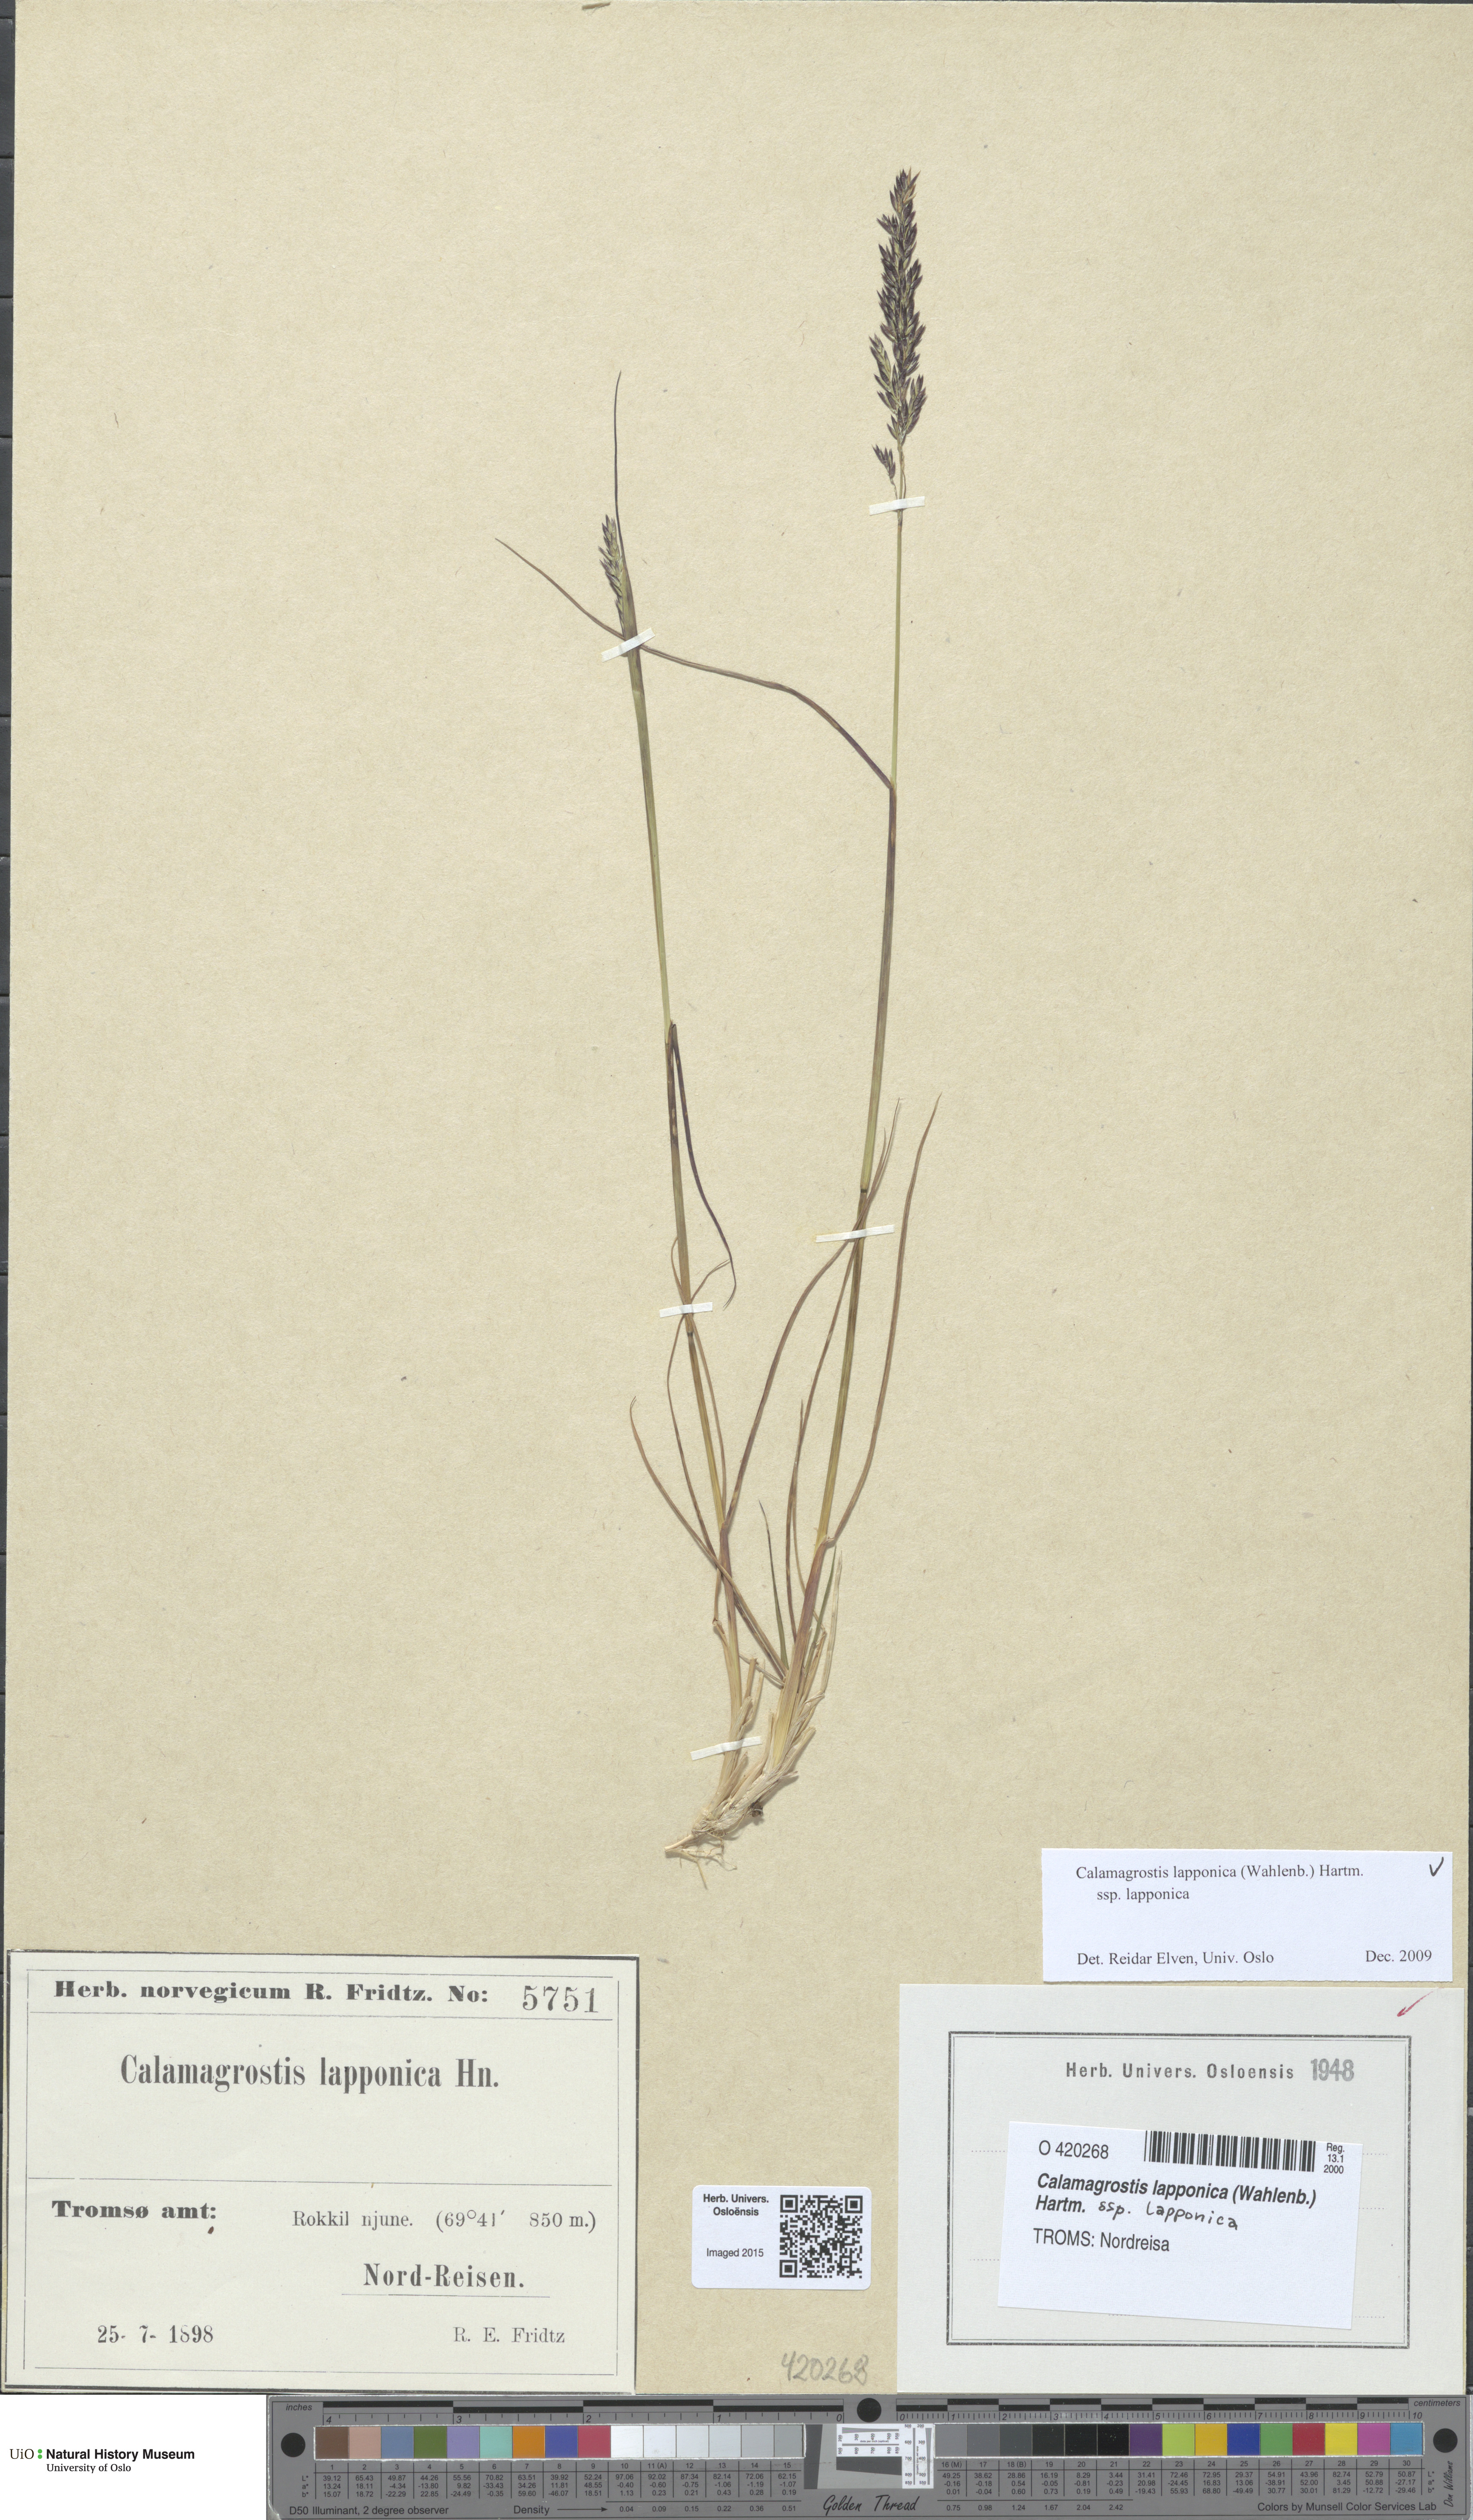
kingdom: Plantae
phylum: Tracheophyta
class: Liliopsida
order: Poales
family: Poaceae
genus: Calamagrostis
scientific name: Calamagrostis lapponica
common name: Lapland reedgrass
